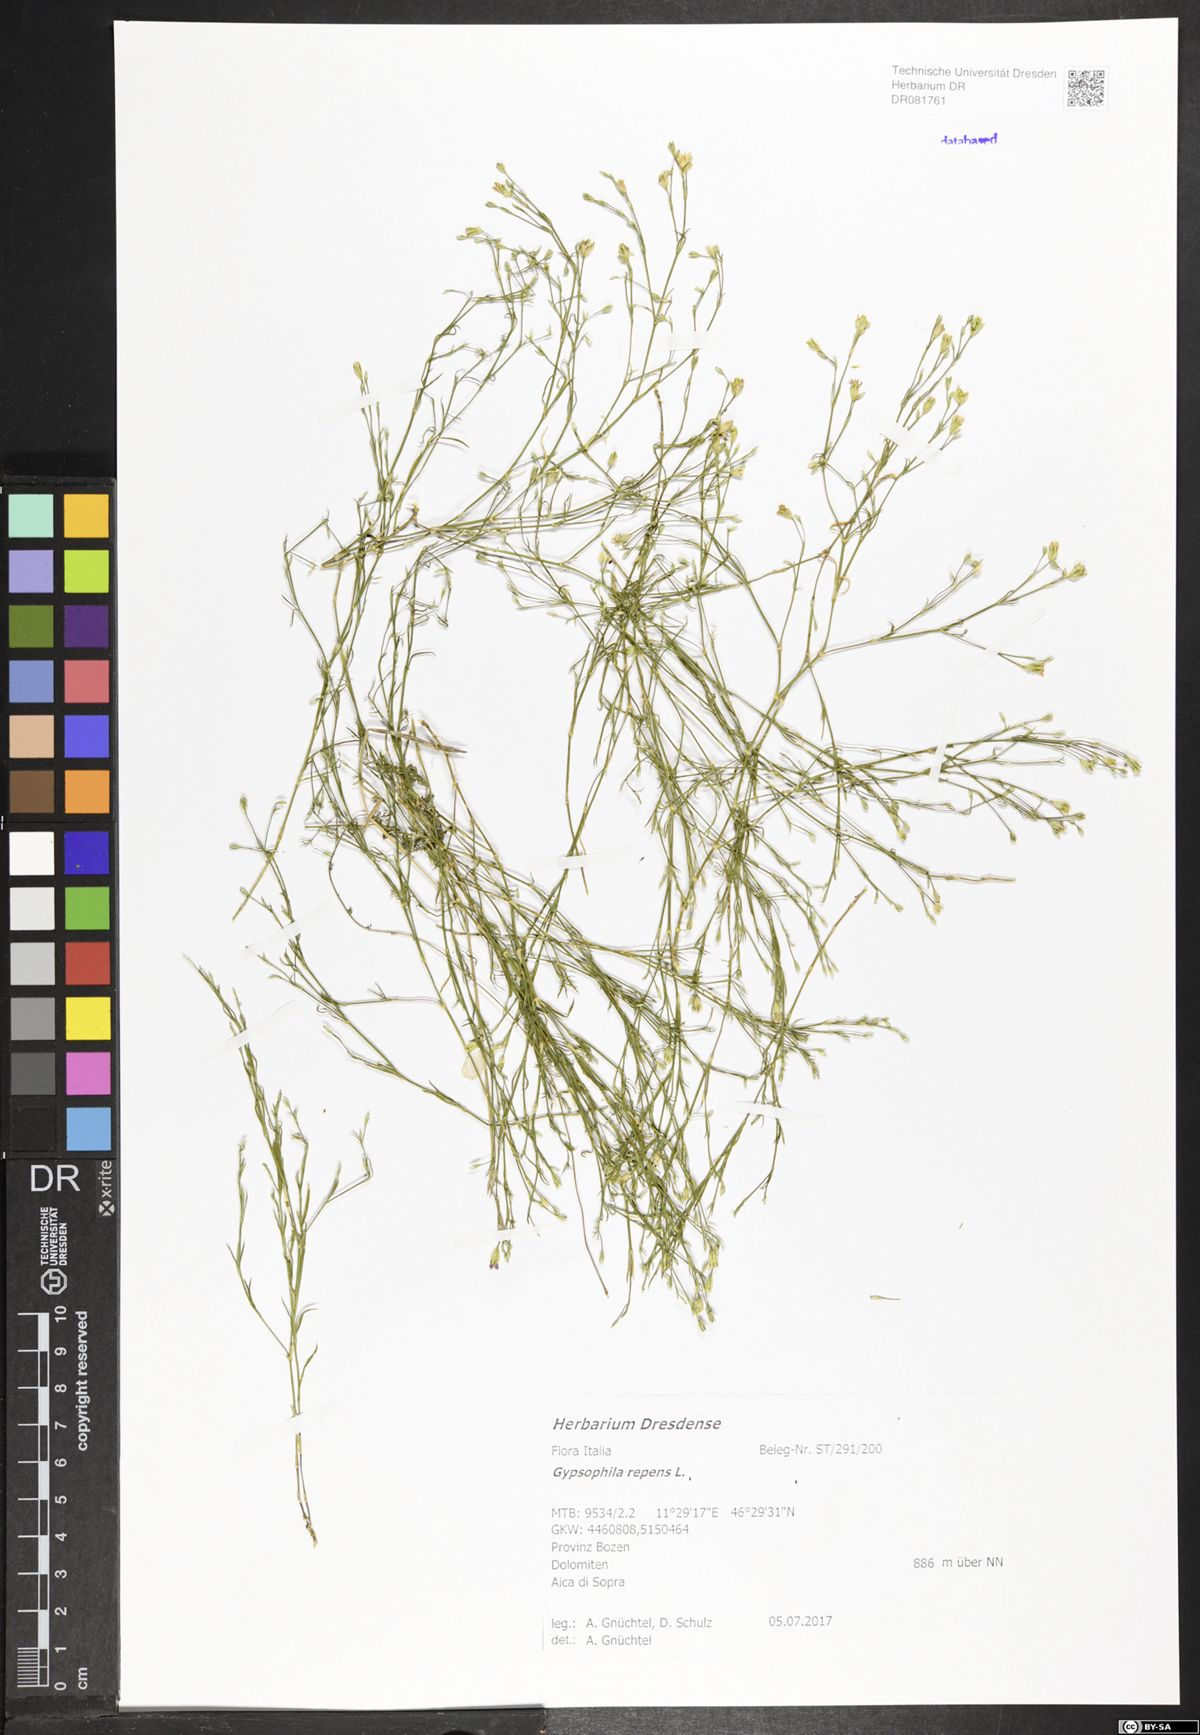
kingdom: Plantae
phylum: Tracheophyta
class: Magnoliopsida
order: Caryophyllales
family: Caryophyllaceae
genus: Gypsophila
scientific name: Gypsophila repens
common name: Creeping baby's-breath
